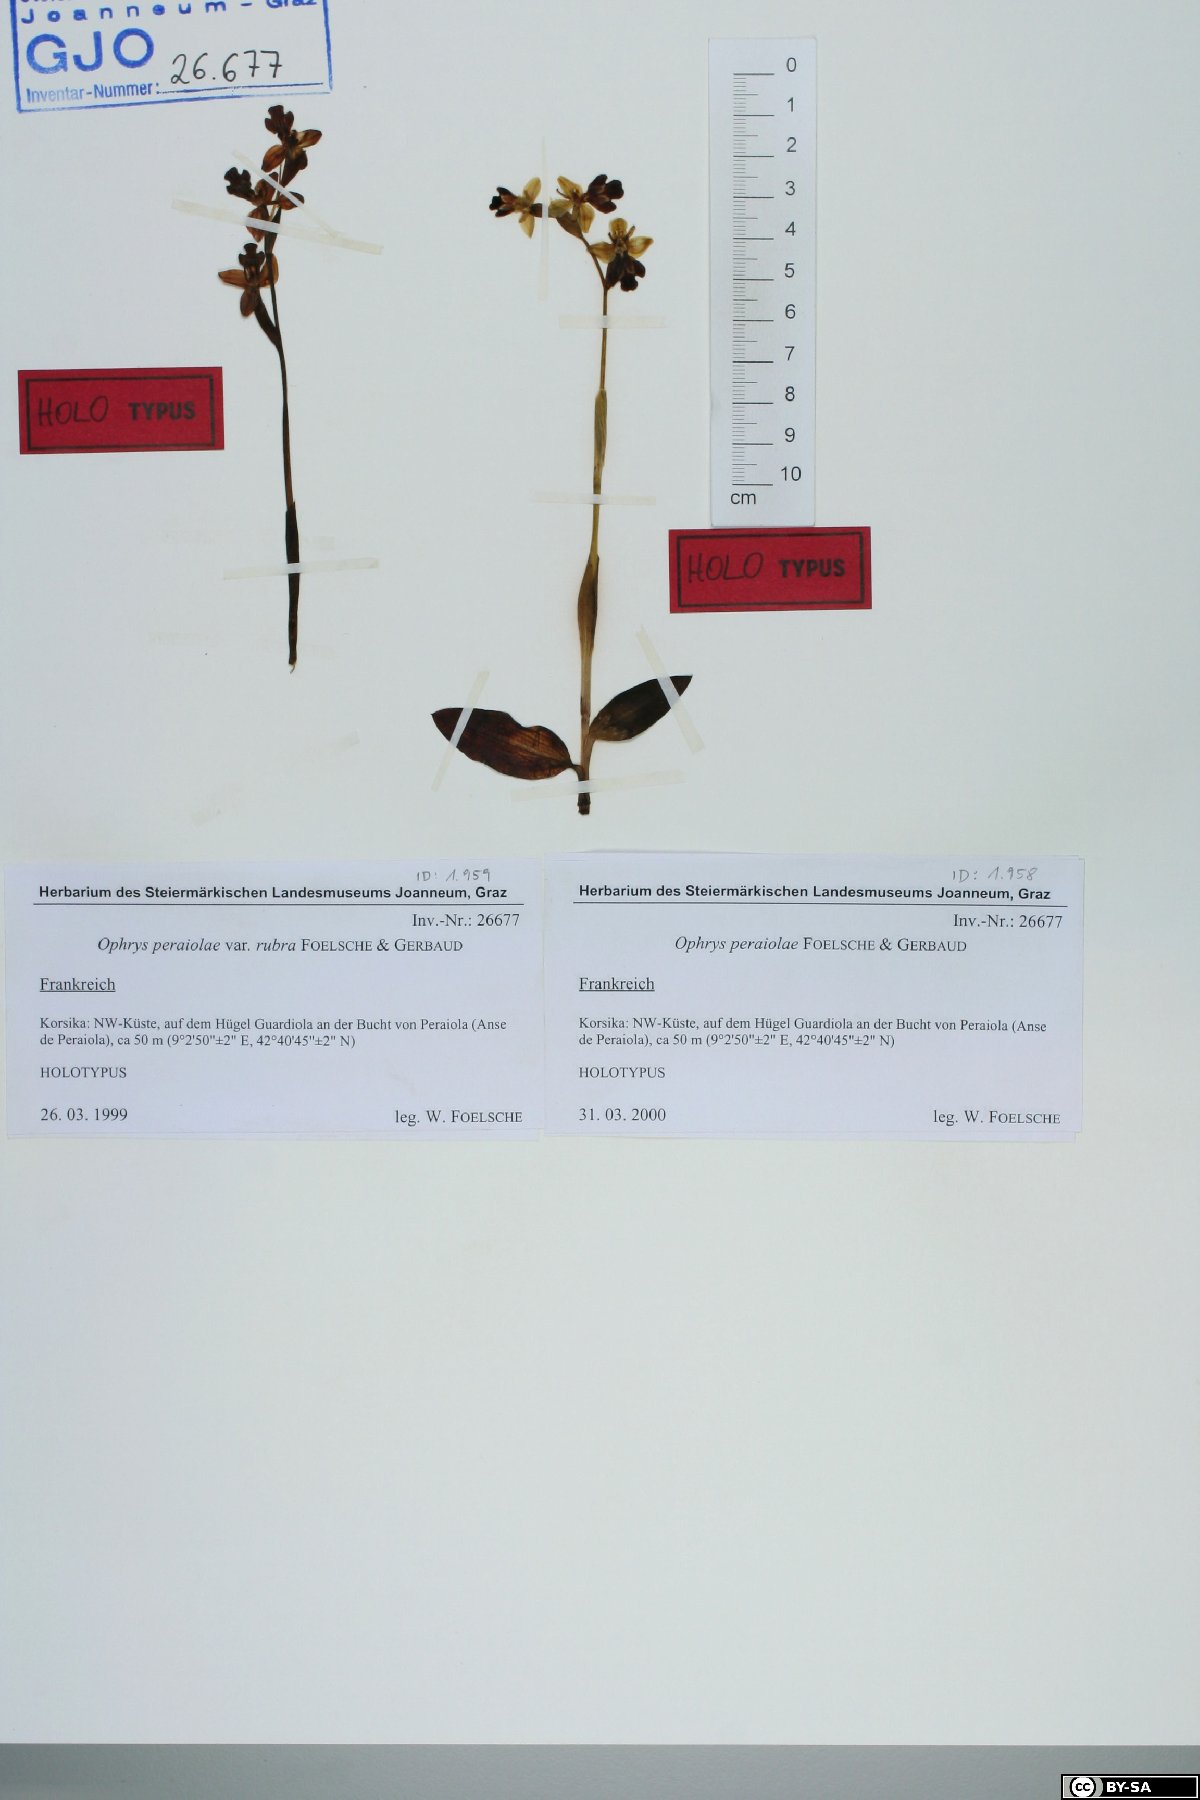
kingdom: Plantae
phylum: Tracheophyta
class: Liliopsida
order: Asparagales
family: Orchidaceae
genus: Ophrys
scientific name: Ophrys fusca
